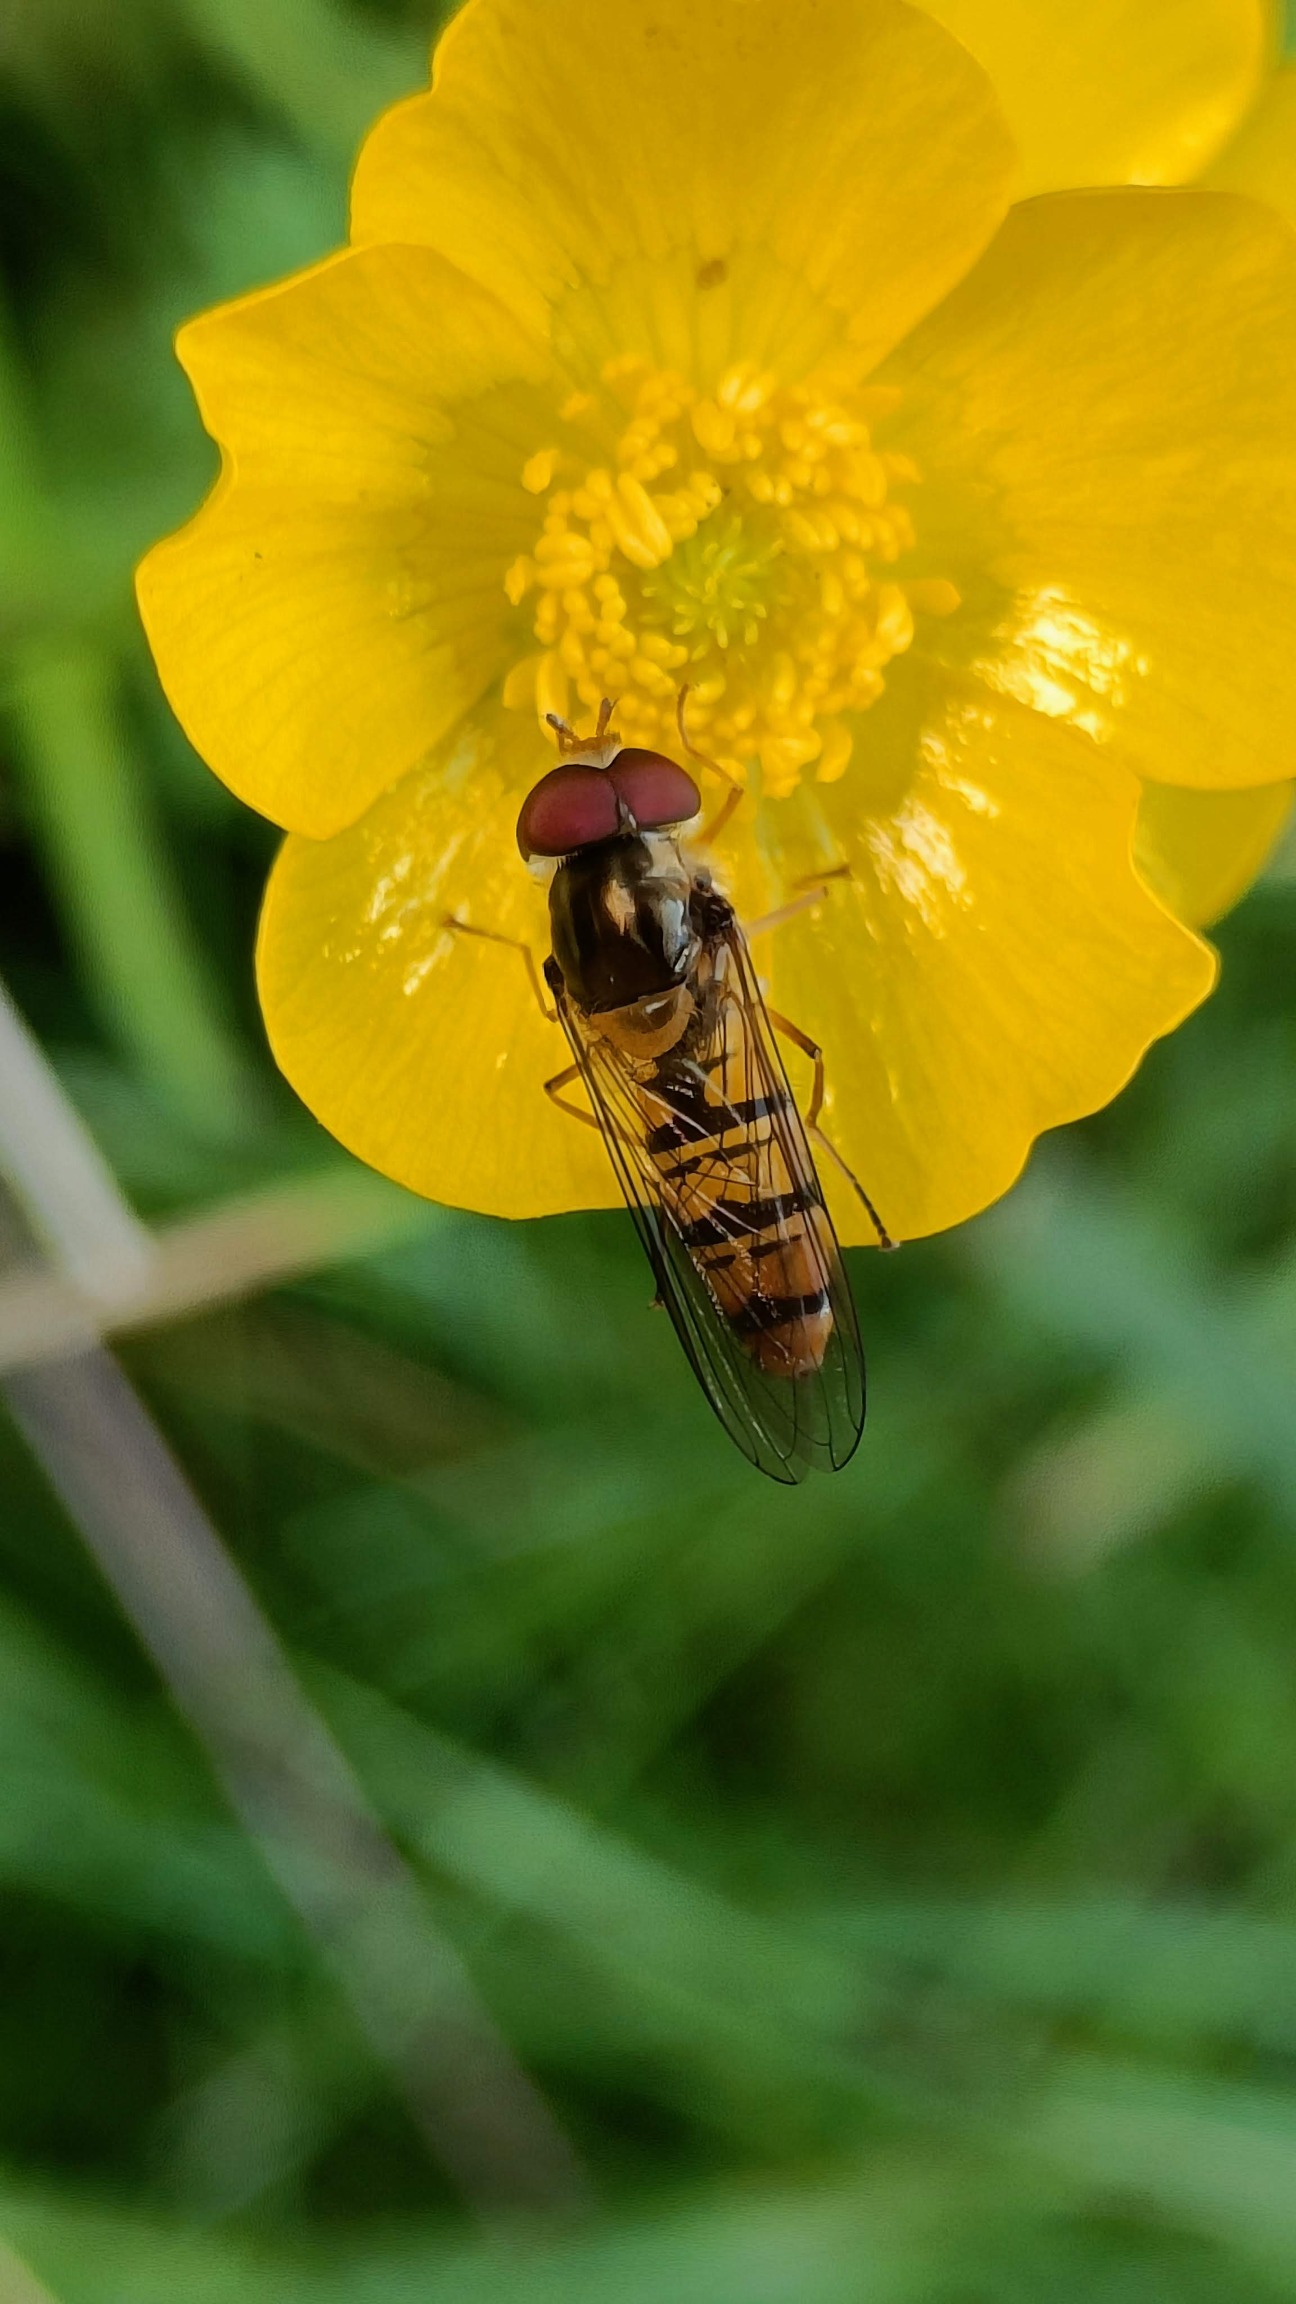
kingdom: Animalia
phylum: Arthropoda
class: Insecta
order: Diptera
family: Syrphidae
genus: Episyrphus
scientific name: Episyrphus balteatus
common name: Dobbeltbåndet svirreflue
